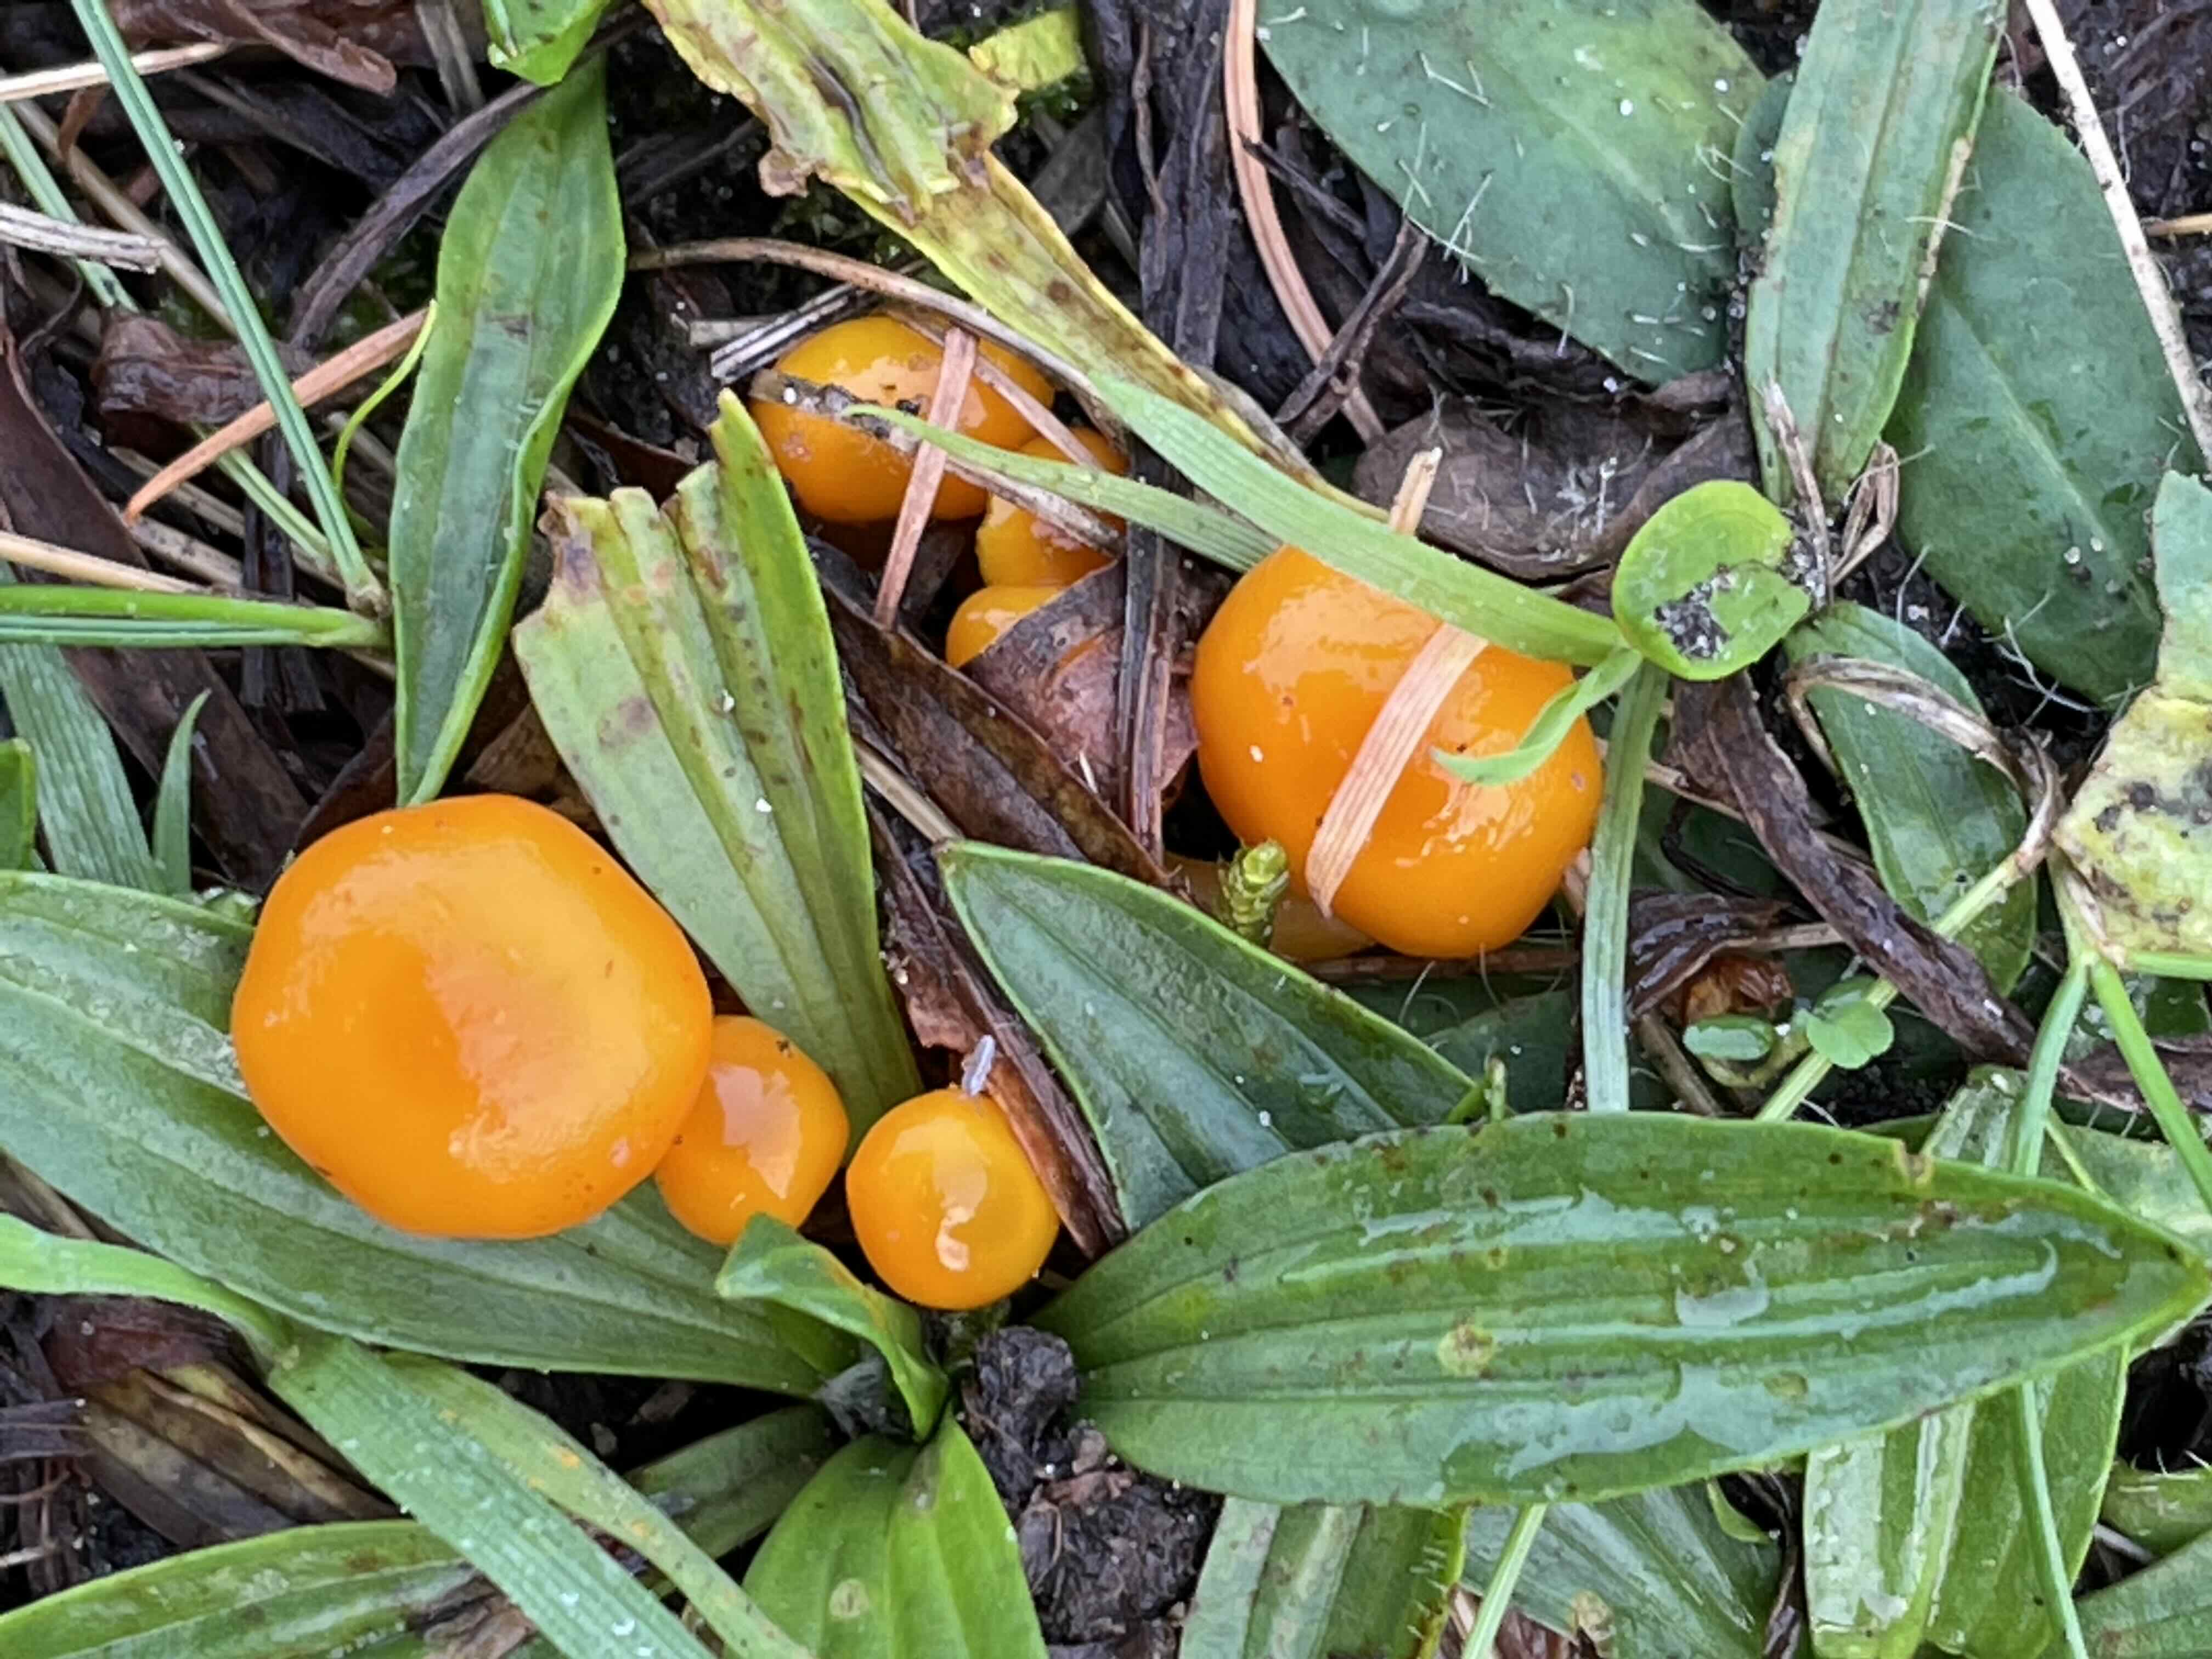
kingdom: Fungi
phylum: Basidiomycota
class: Agaricomycetes
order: Agaricales
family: Hygrophoraceae
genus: Hygrocybe
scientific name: Hygrocybe
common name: vokshat
